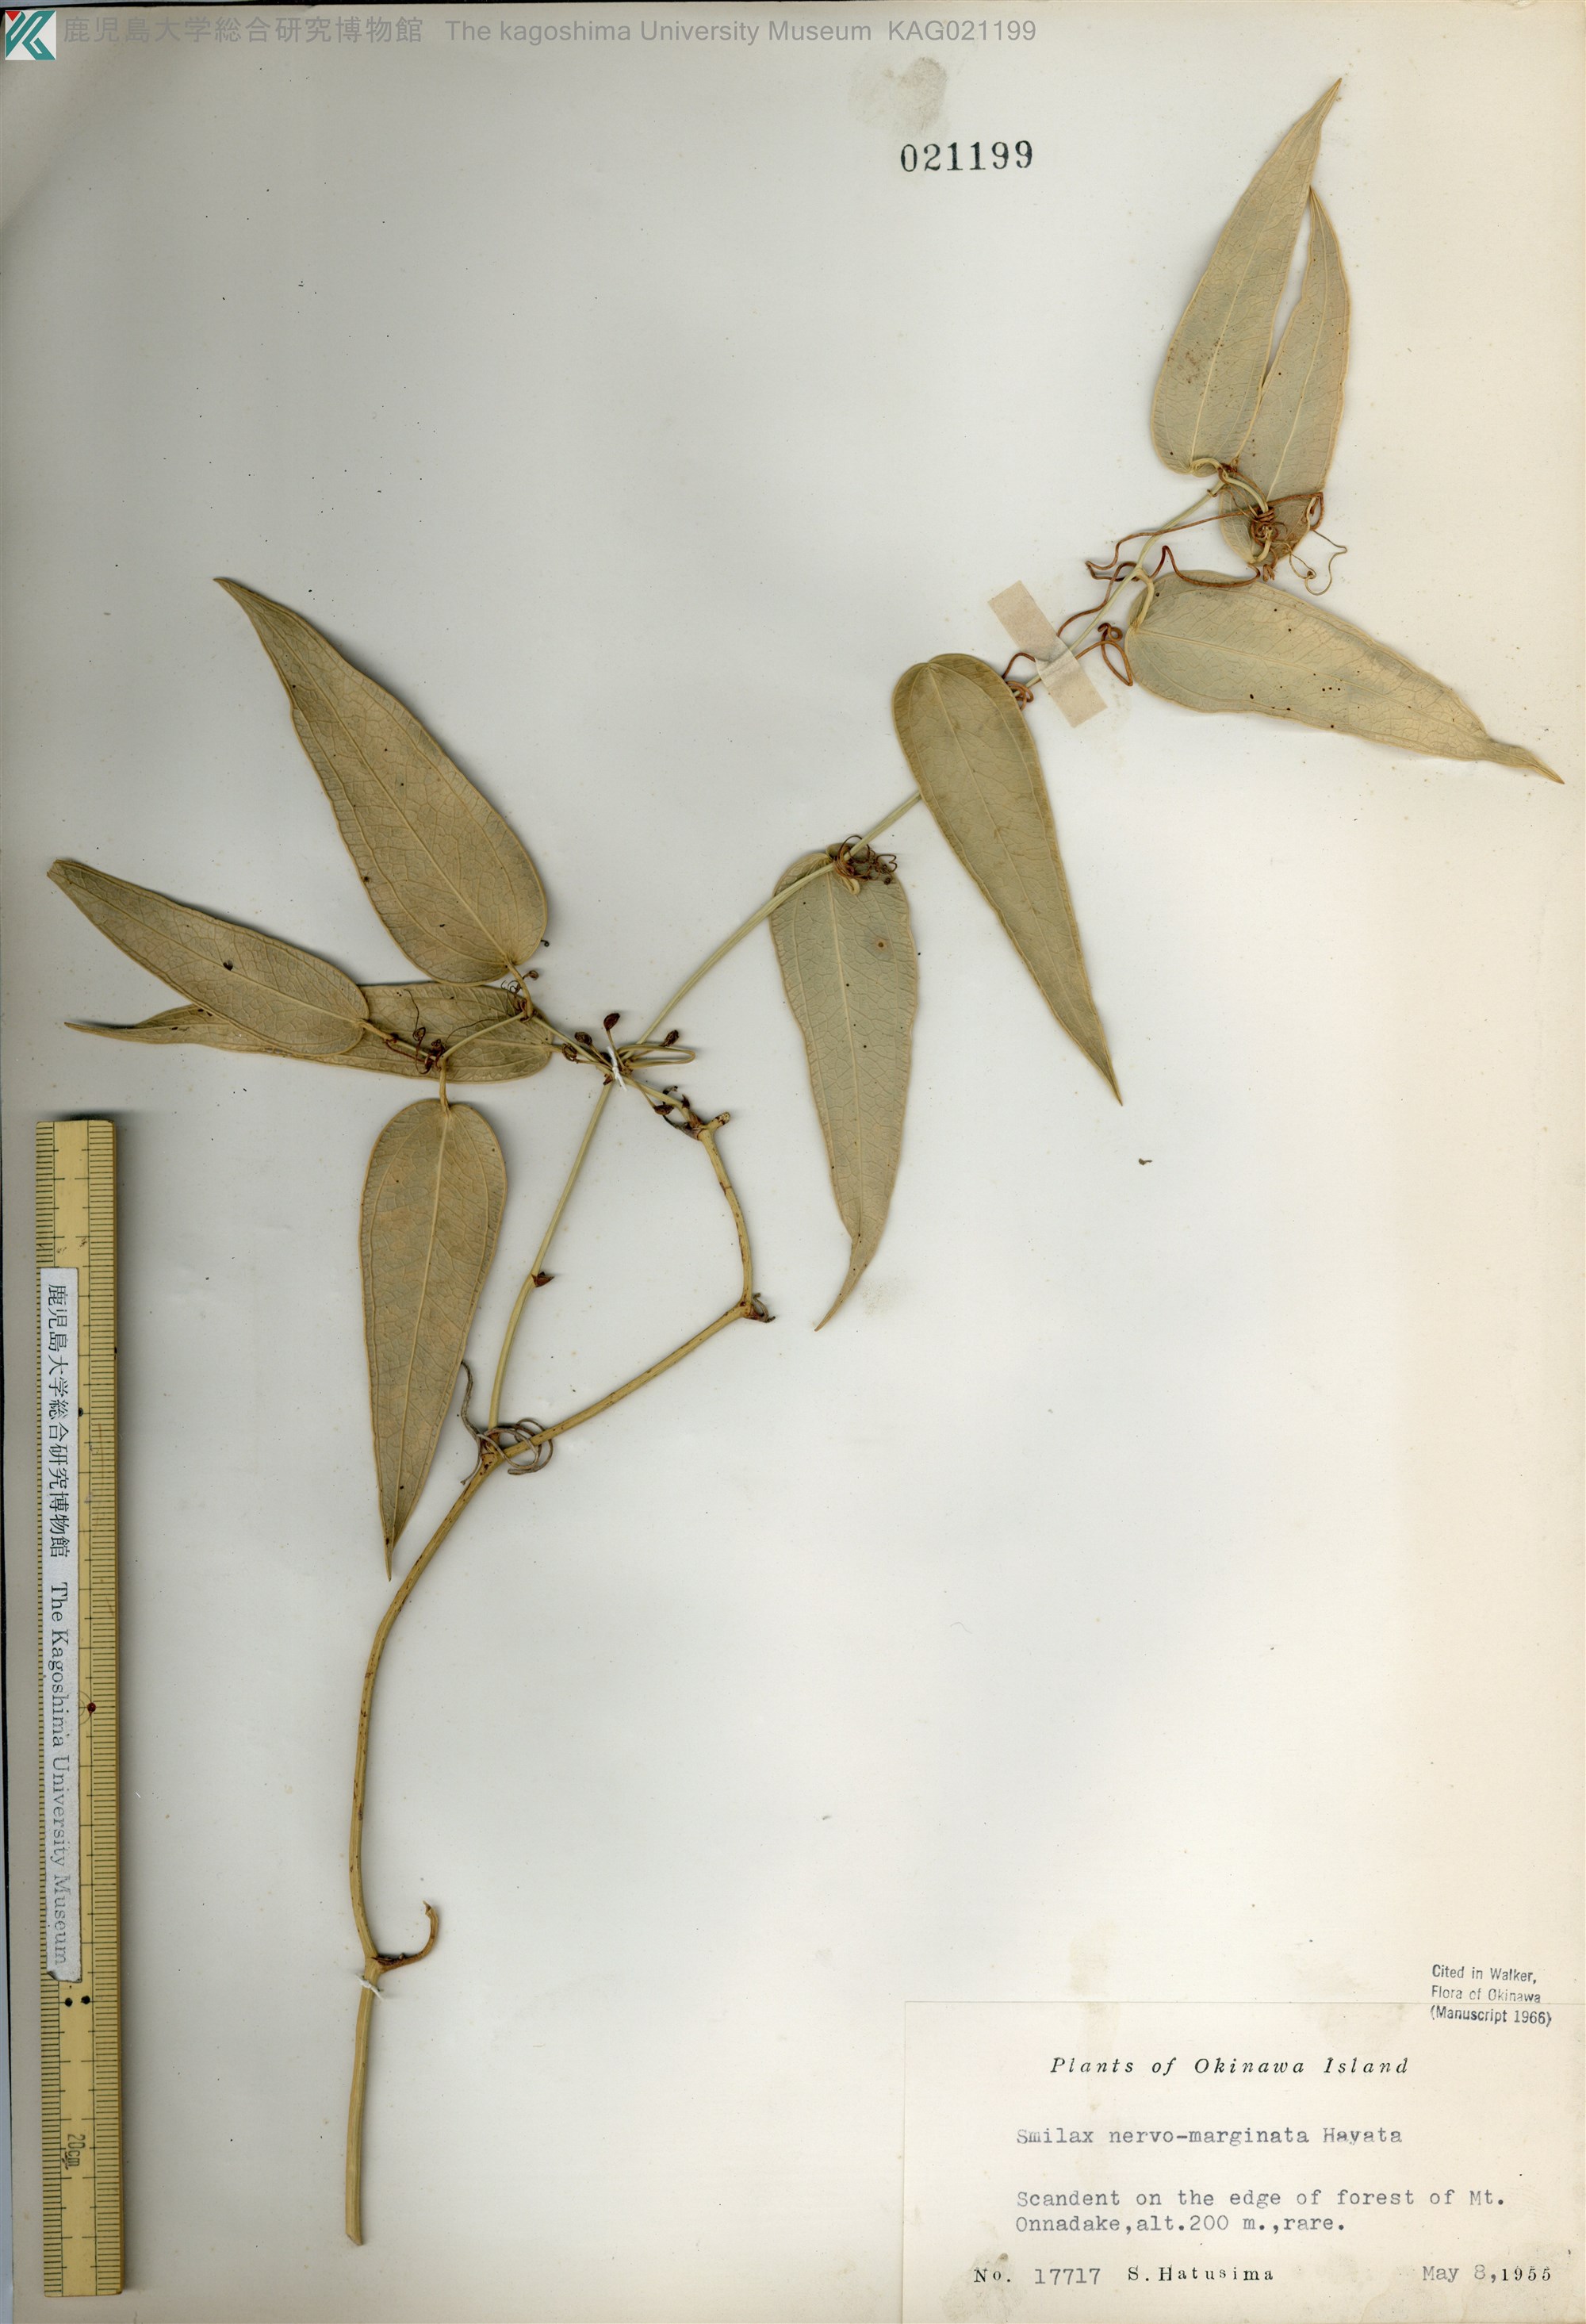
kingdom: Plantae
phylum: Tracheophyta
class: Liliopsida
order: Liliales
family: Smilacaceae
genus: Smilax
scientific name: Smilax nervomarginata
